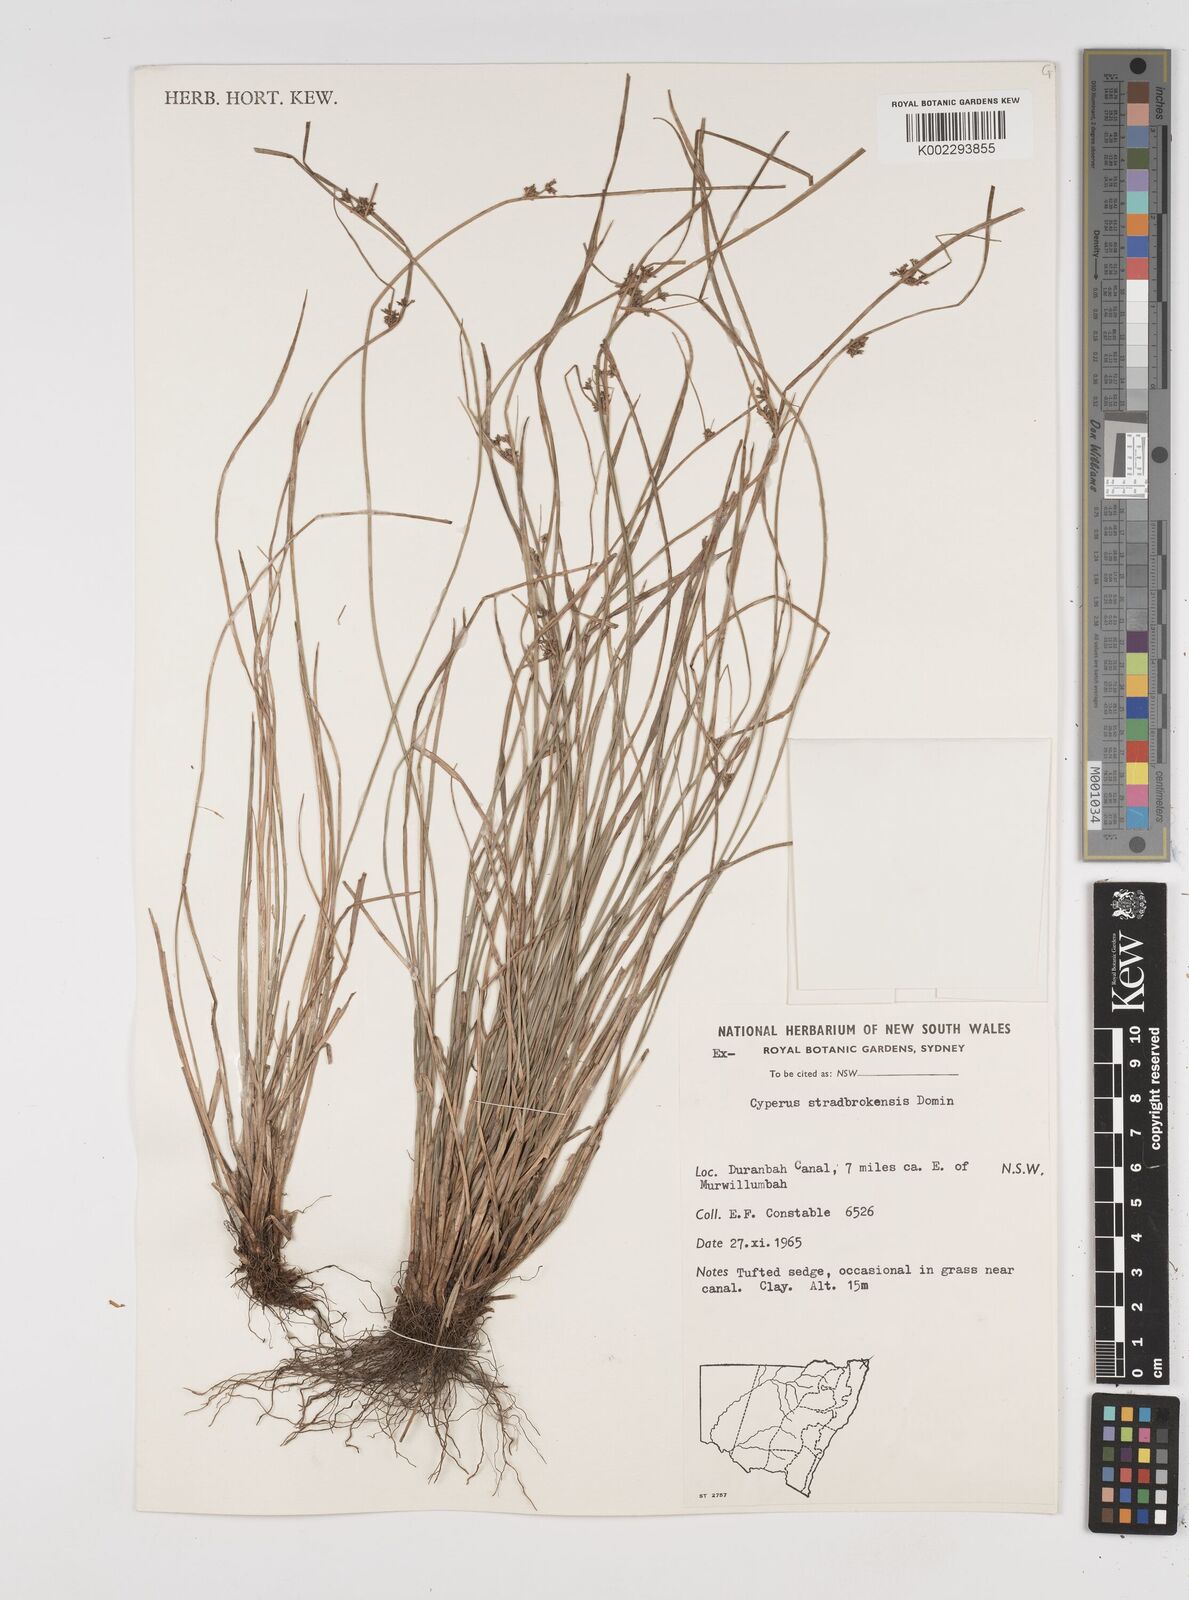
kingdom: Plantae
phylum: Tracheophyta
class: Liliopsida
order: Poales
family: Cyperaceae
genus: Cyperus
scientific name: Cyperus stradbrokensis
